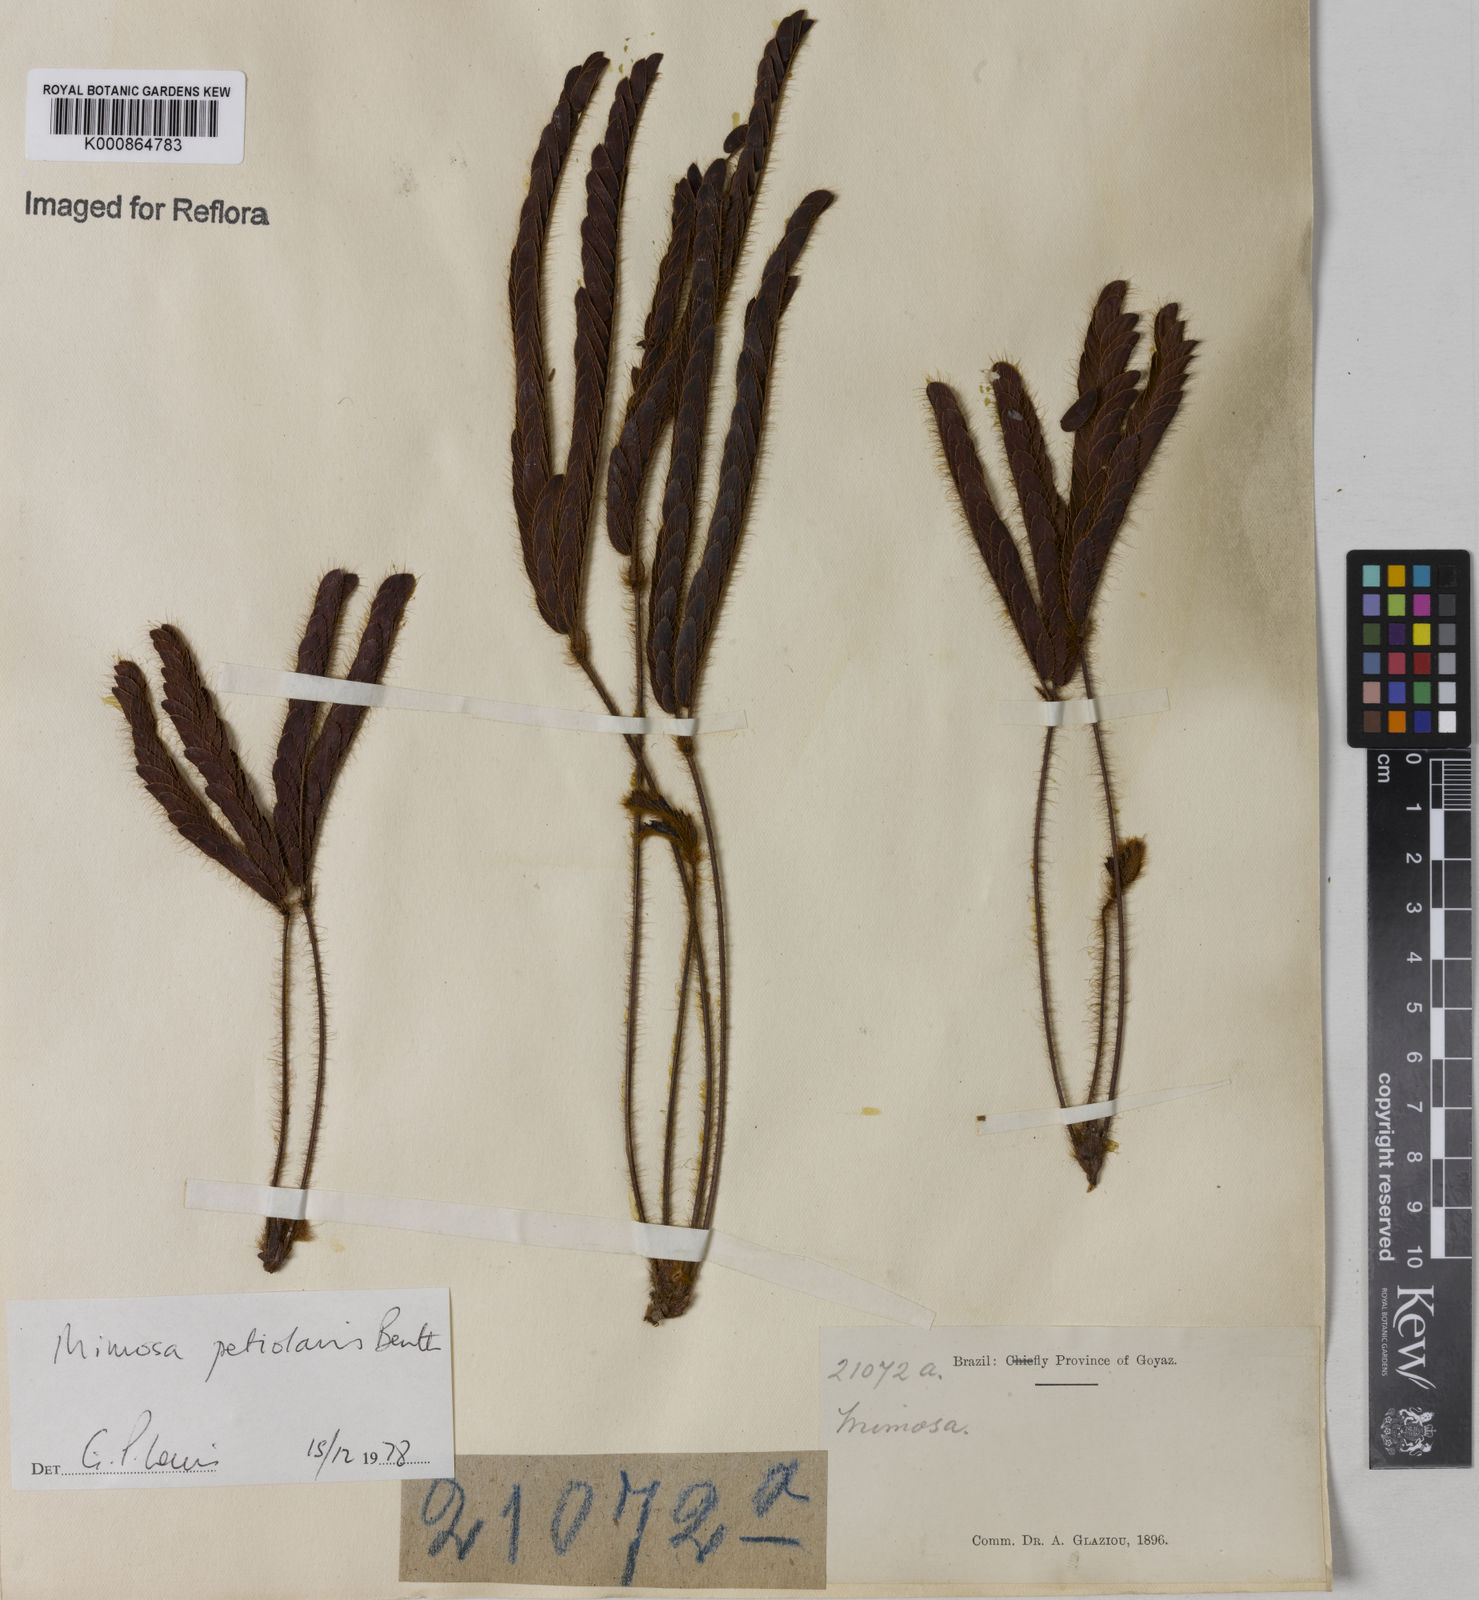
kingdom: Plantae
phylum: Tracheophyta
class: Magnoliopsida
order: Fabales
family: Fabaceae
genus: Mimosa
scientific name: Mimosa petiolaris
